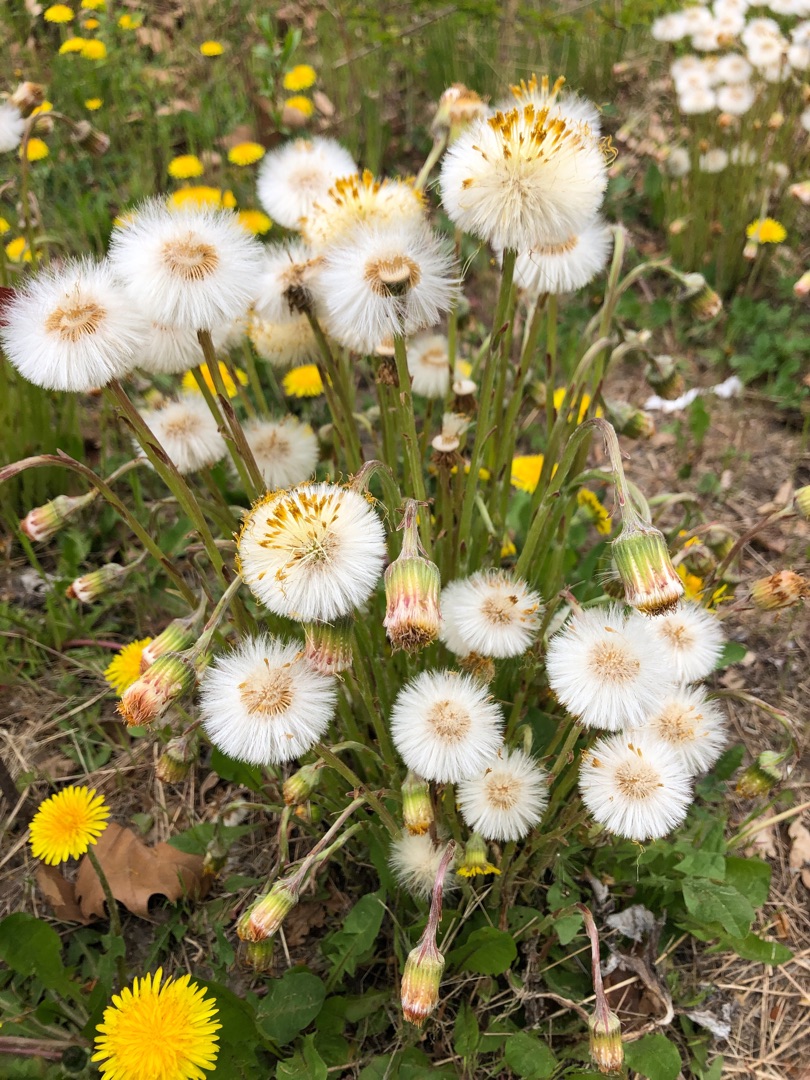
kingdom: Plantae
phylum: Tracheophyta
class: Magnoliopsida
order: Asterales
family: Asteraceae
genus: Tussilago
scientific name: Tussilago farfara
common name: Følfod
